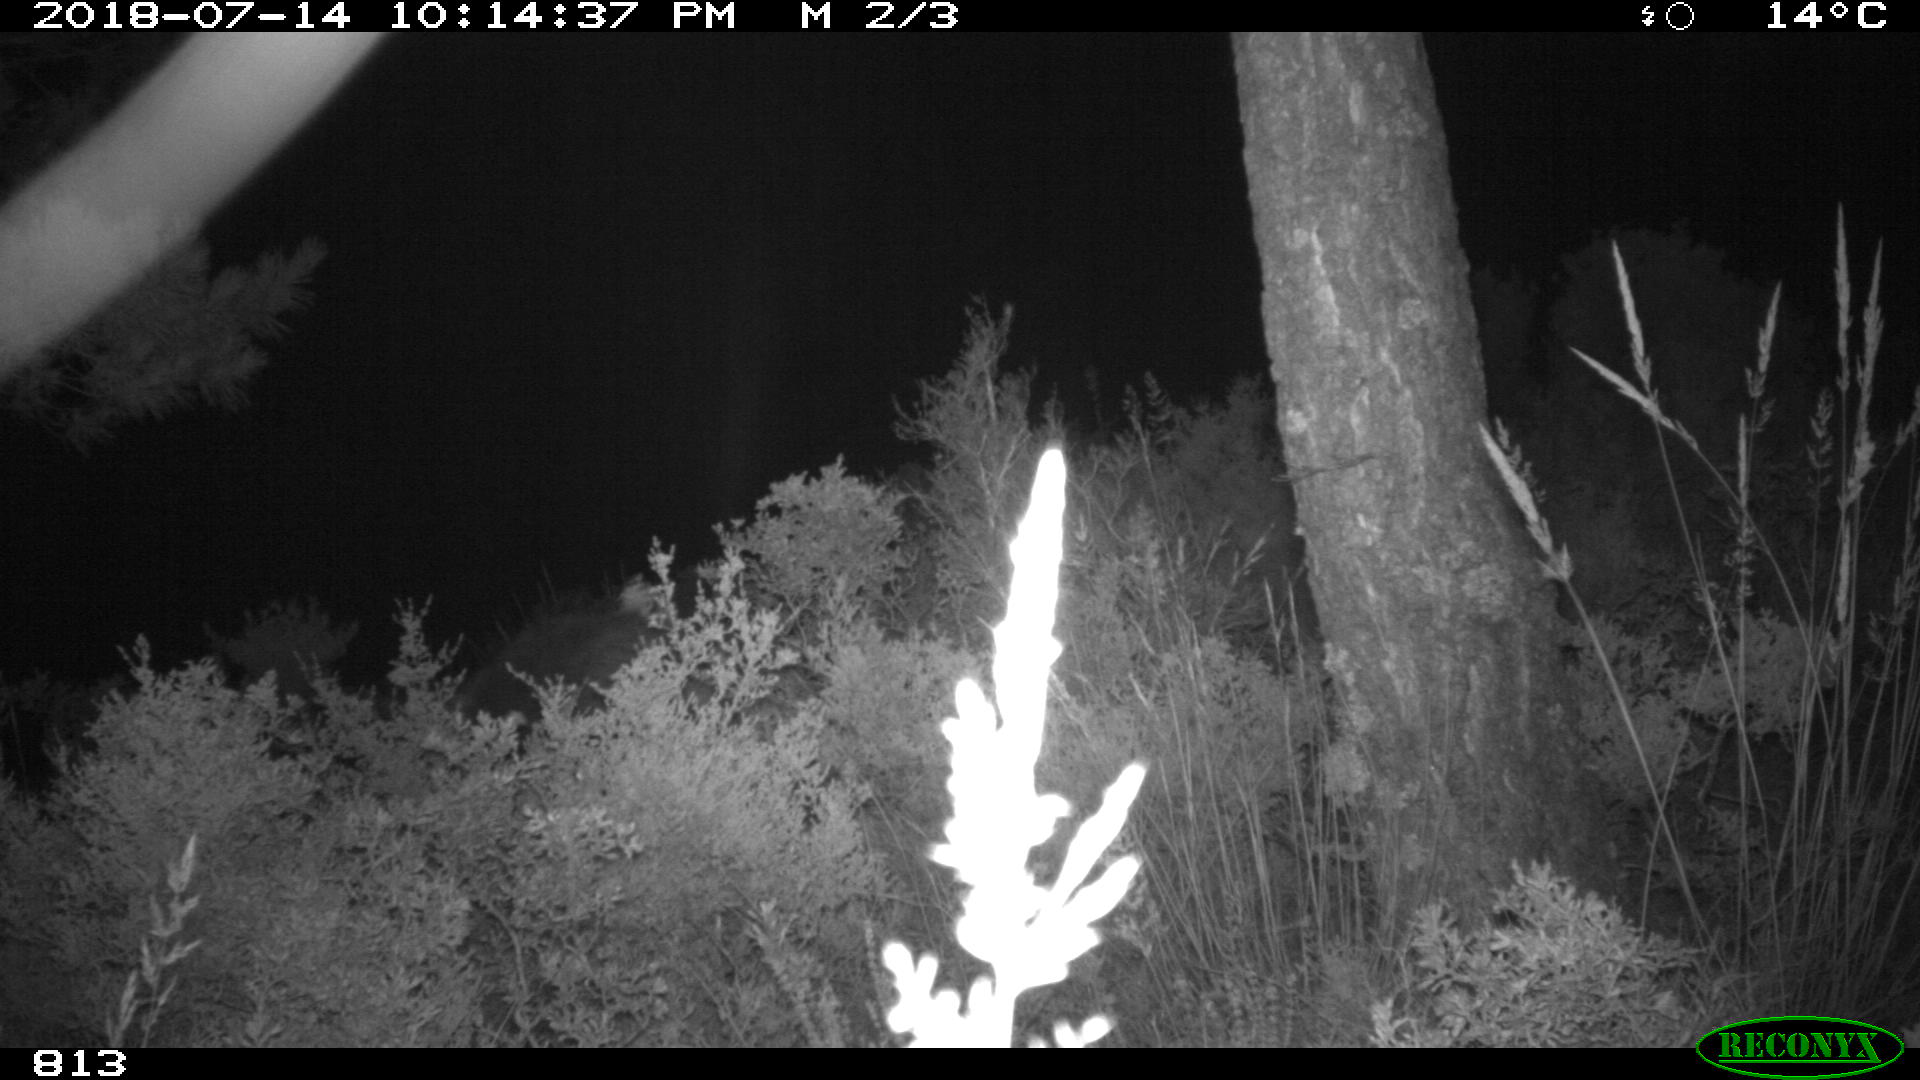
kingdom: Animalia
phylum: Chordata
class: Mammalia
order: Artiodactyla
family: Suidae
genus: Sus
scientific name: Sus scrofa
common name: Wild boar
